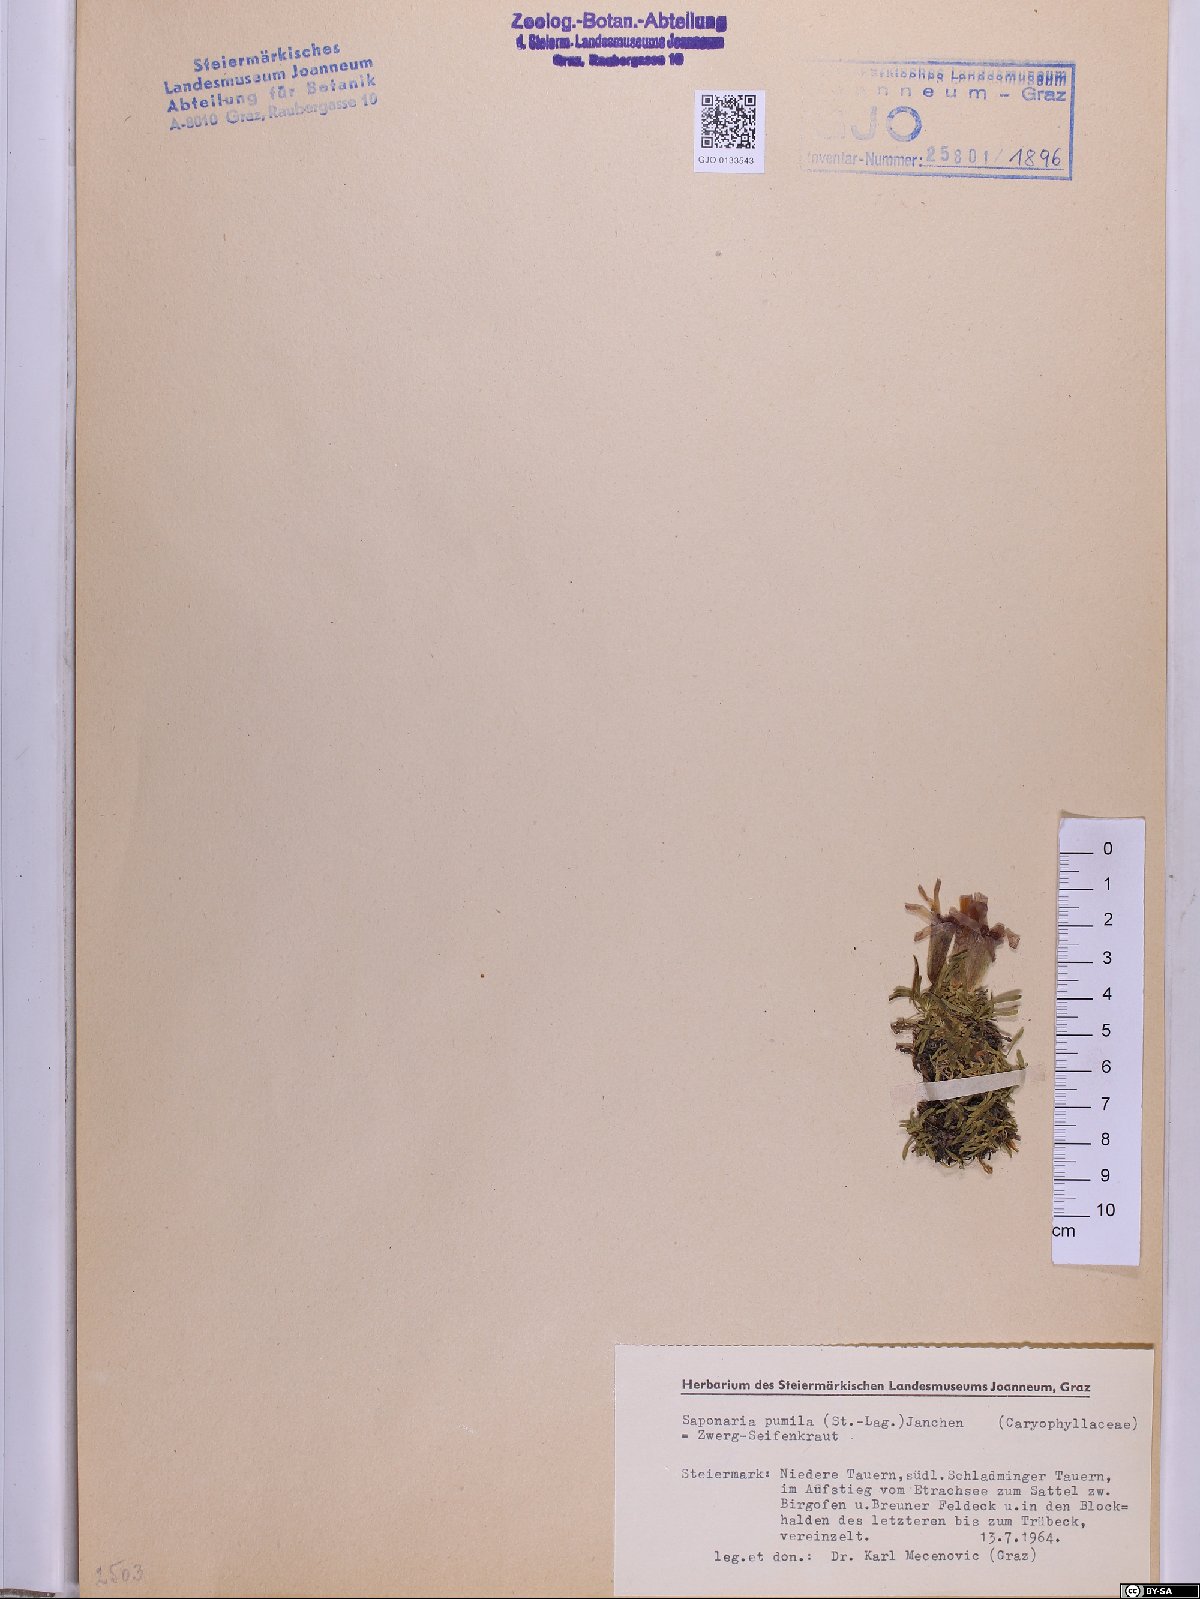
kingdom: Plantae
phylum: Tracheophyta
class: Magnoliopsida
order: Caryophyllales
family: Caryophyllaceae
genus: Saponaria
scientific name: Saponaria pumila
